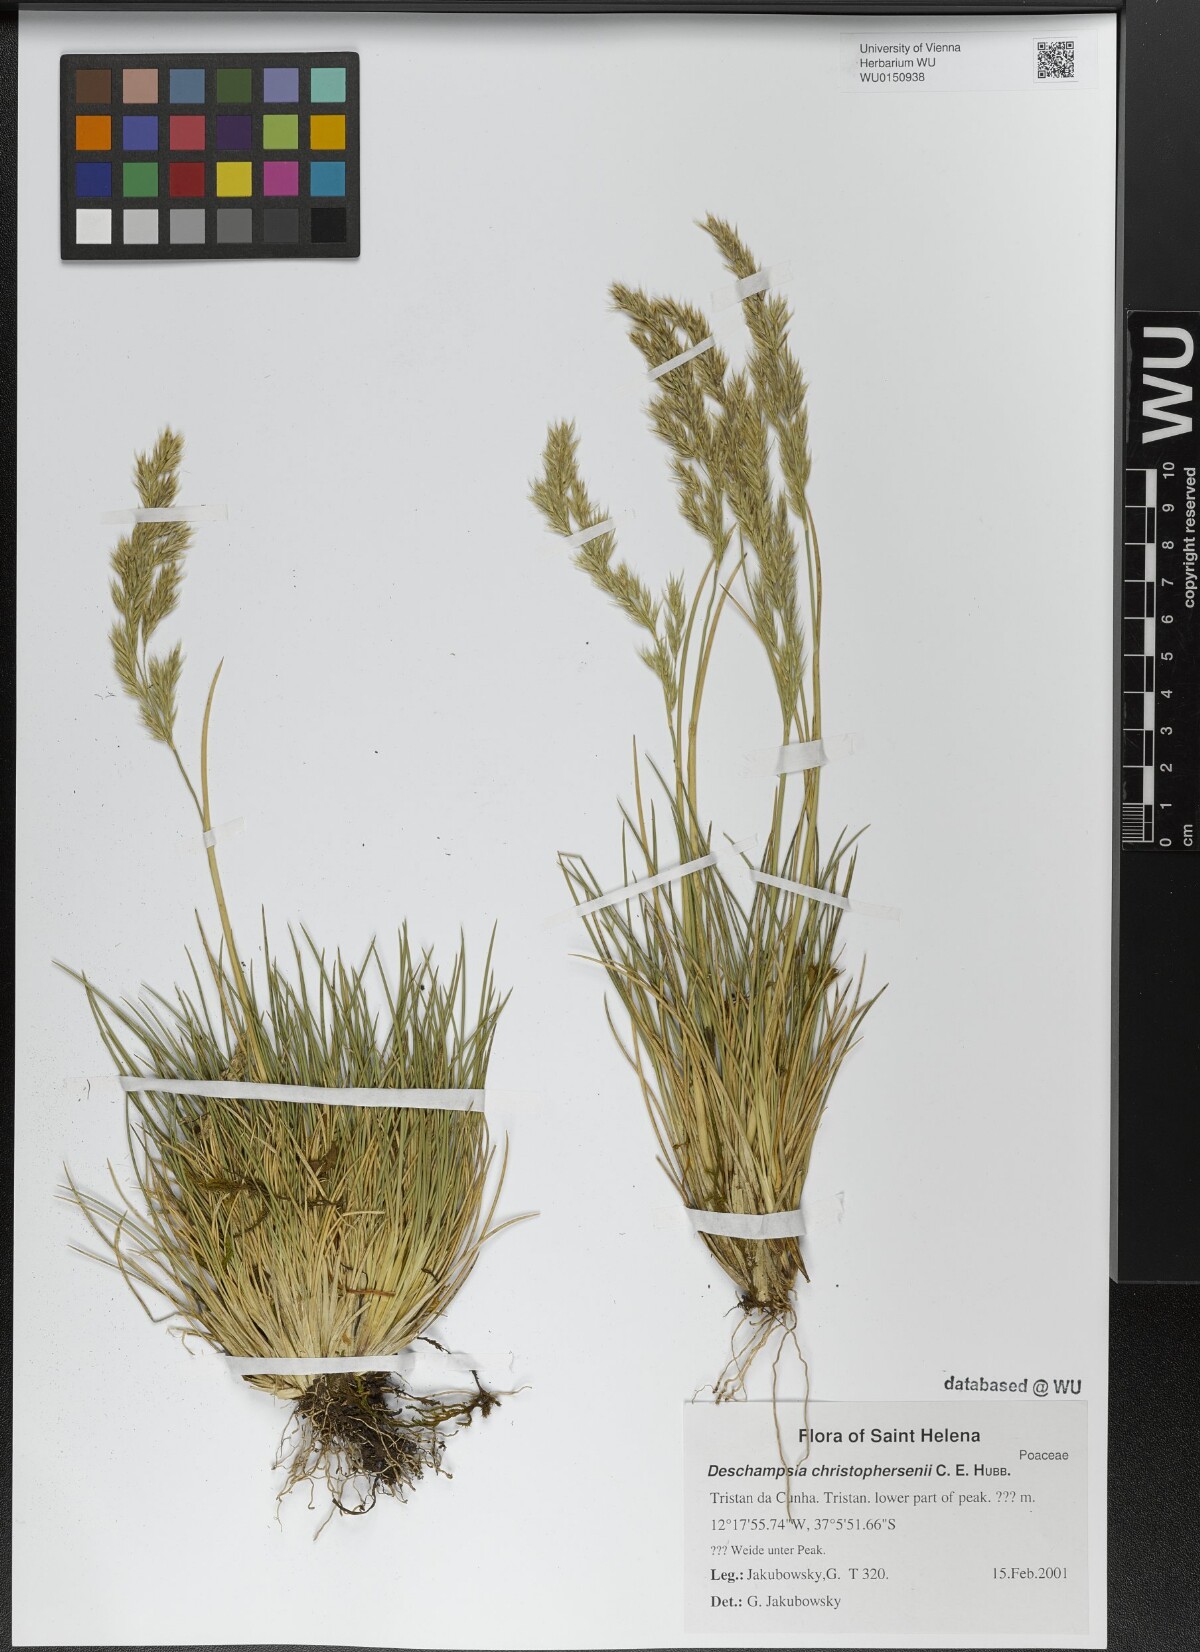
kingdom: Plantae
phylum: Tracheophyta
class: Liliopsida
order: Poales
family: Poaceae
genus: Deschampsia
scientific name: Deschampsia christophersenii
